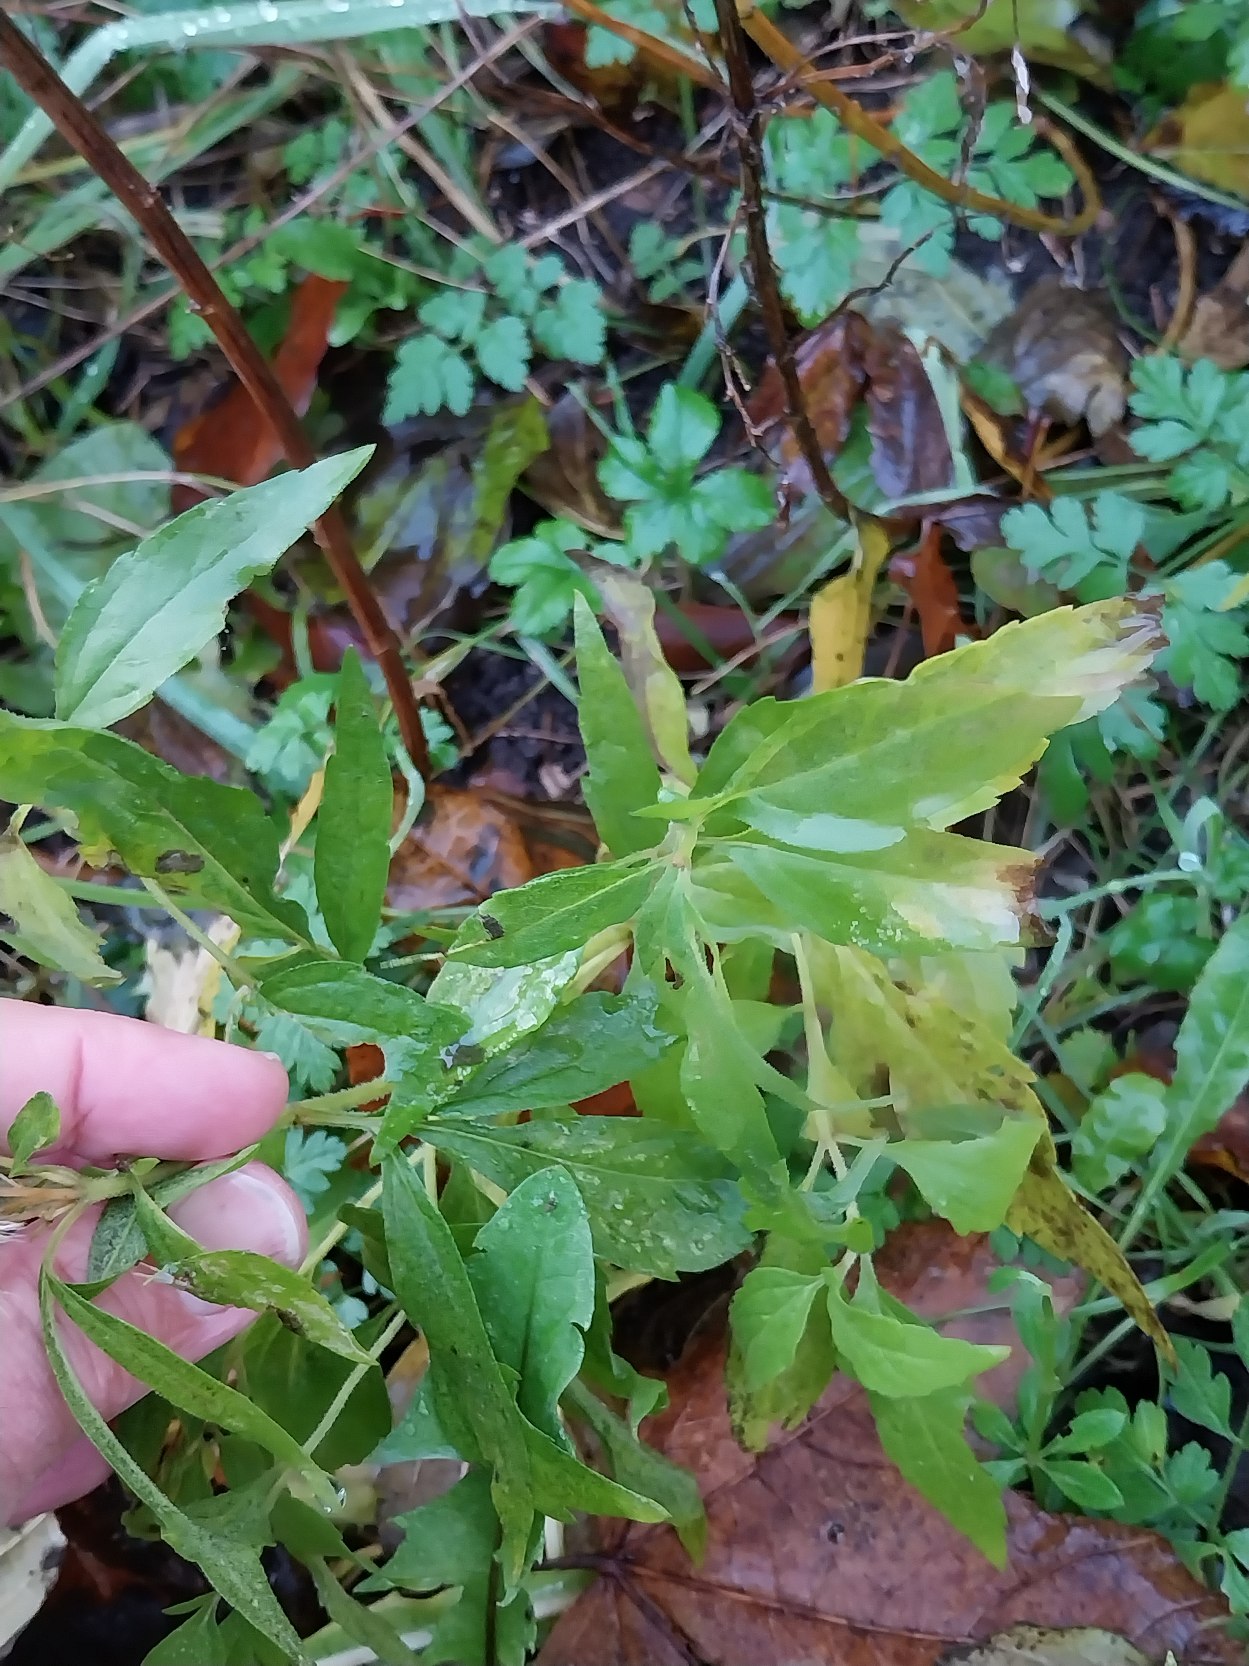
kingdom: Plantae
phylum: Tracheophyta
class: Magnoliopsida
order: Asterales
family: Asteraceae
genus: Eupatorium
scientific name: Eupatorium cannabinum
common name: Hjortetrøst
